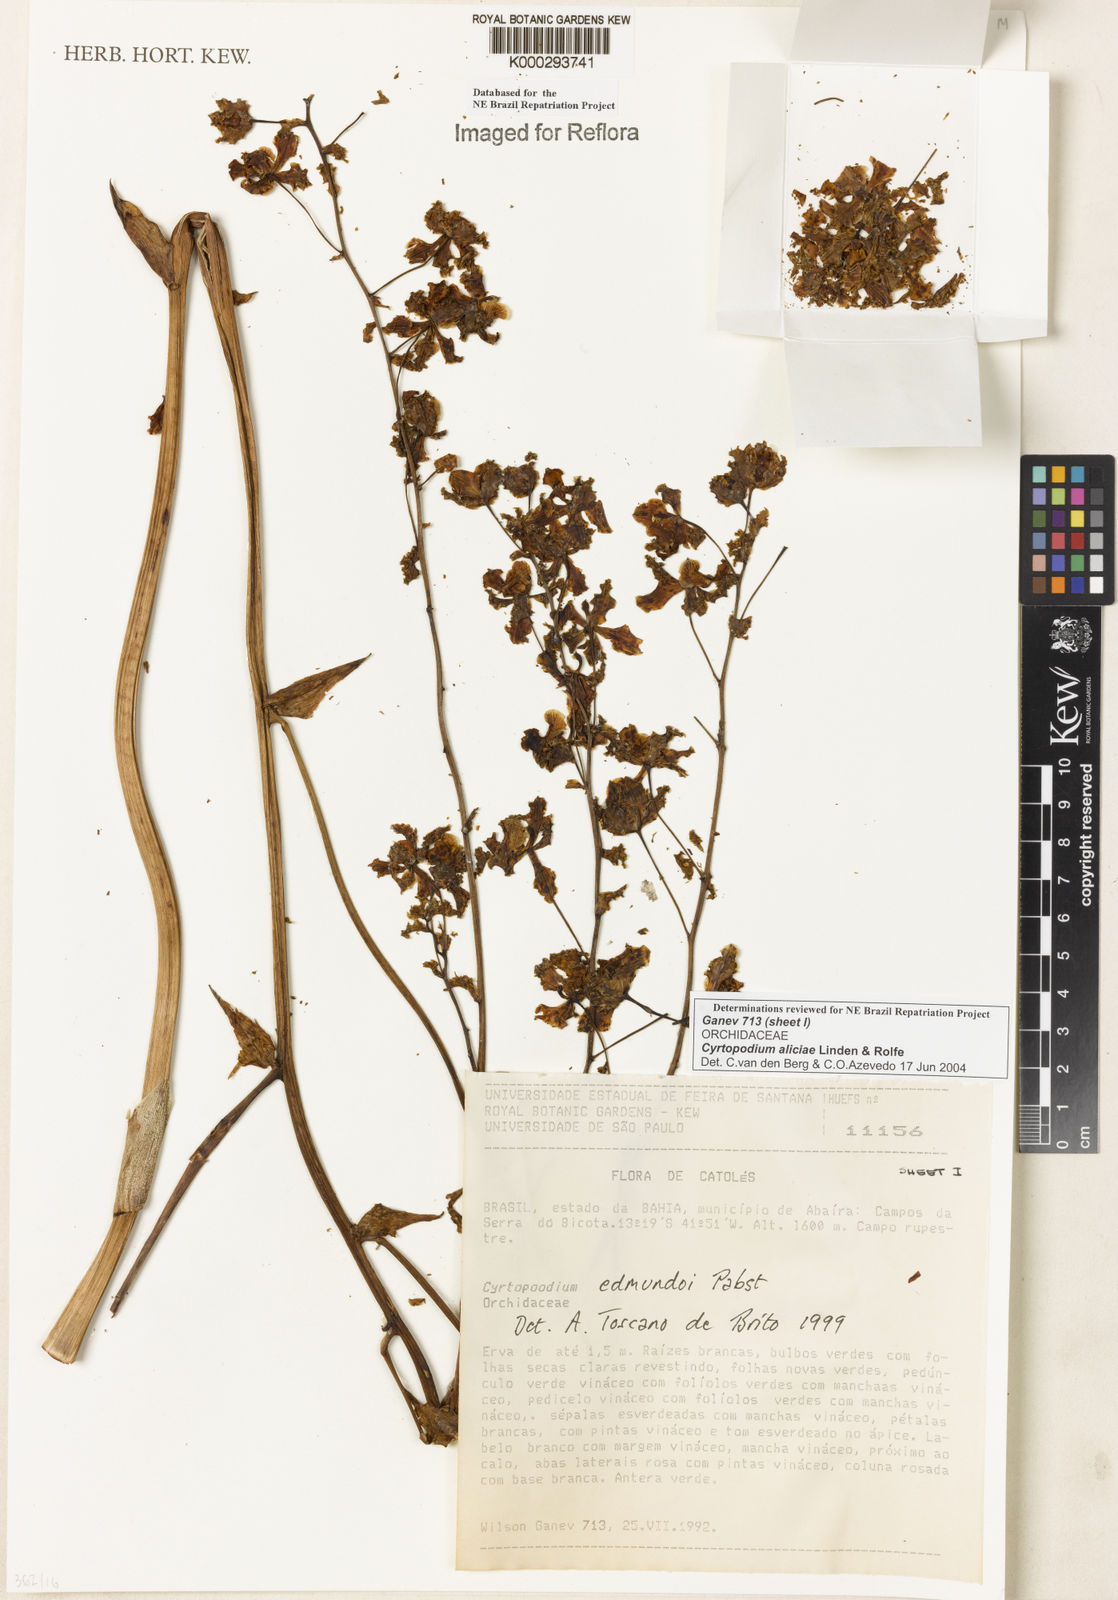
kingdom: Plantae
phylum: Tracheophyta
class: Liliopsida
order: Asparagales
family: Orchidaceae
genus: Cyrtopodium
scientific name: Cyrtopodium aliciae
